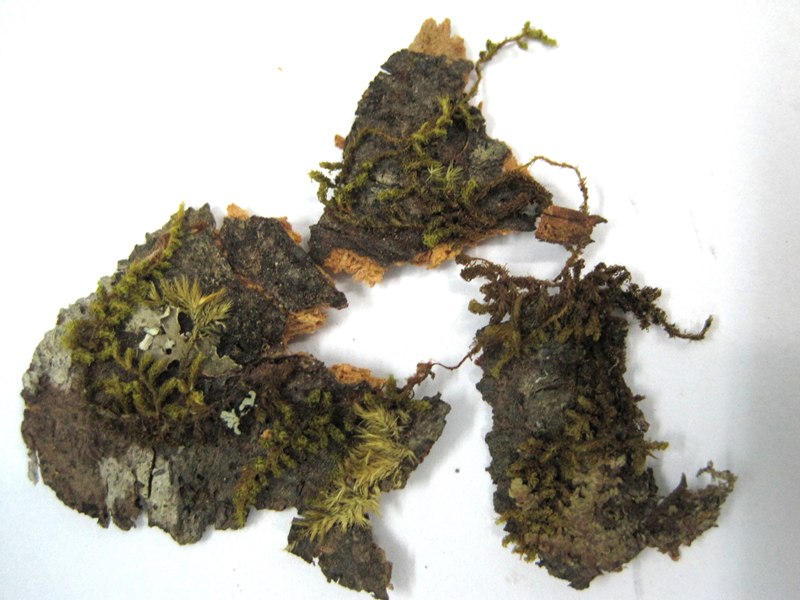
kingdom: Plantae
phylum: Bryophyta
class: Bryopsida
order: Orthotrichales
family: Orthotrichaceae
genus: Macromitrium
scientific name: Macromitrium microstomum
